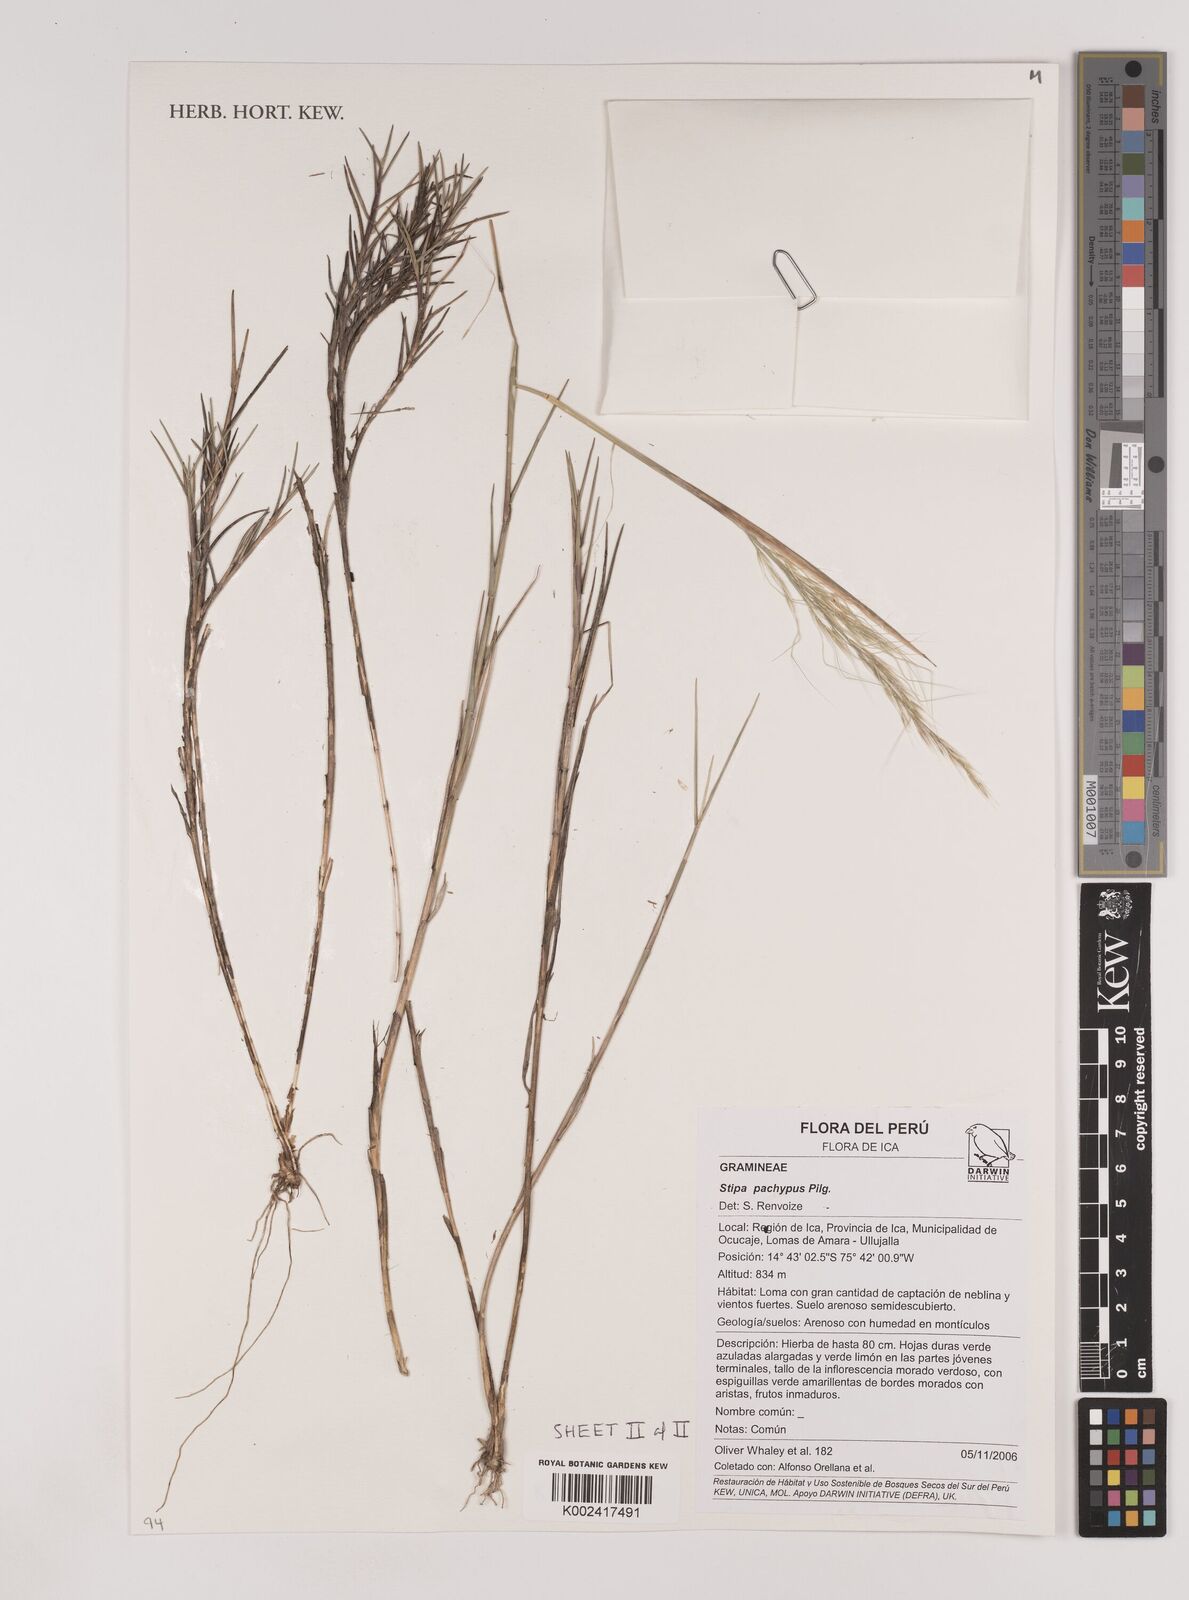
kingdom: Plantae
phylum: Tracheophyta
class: Liliopsida
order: Poales
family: Poaceae
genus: Nassella
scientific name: Nassella
